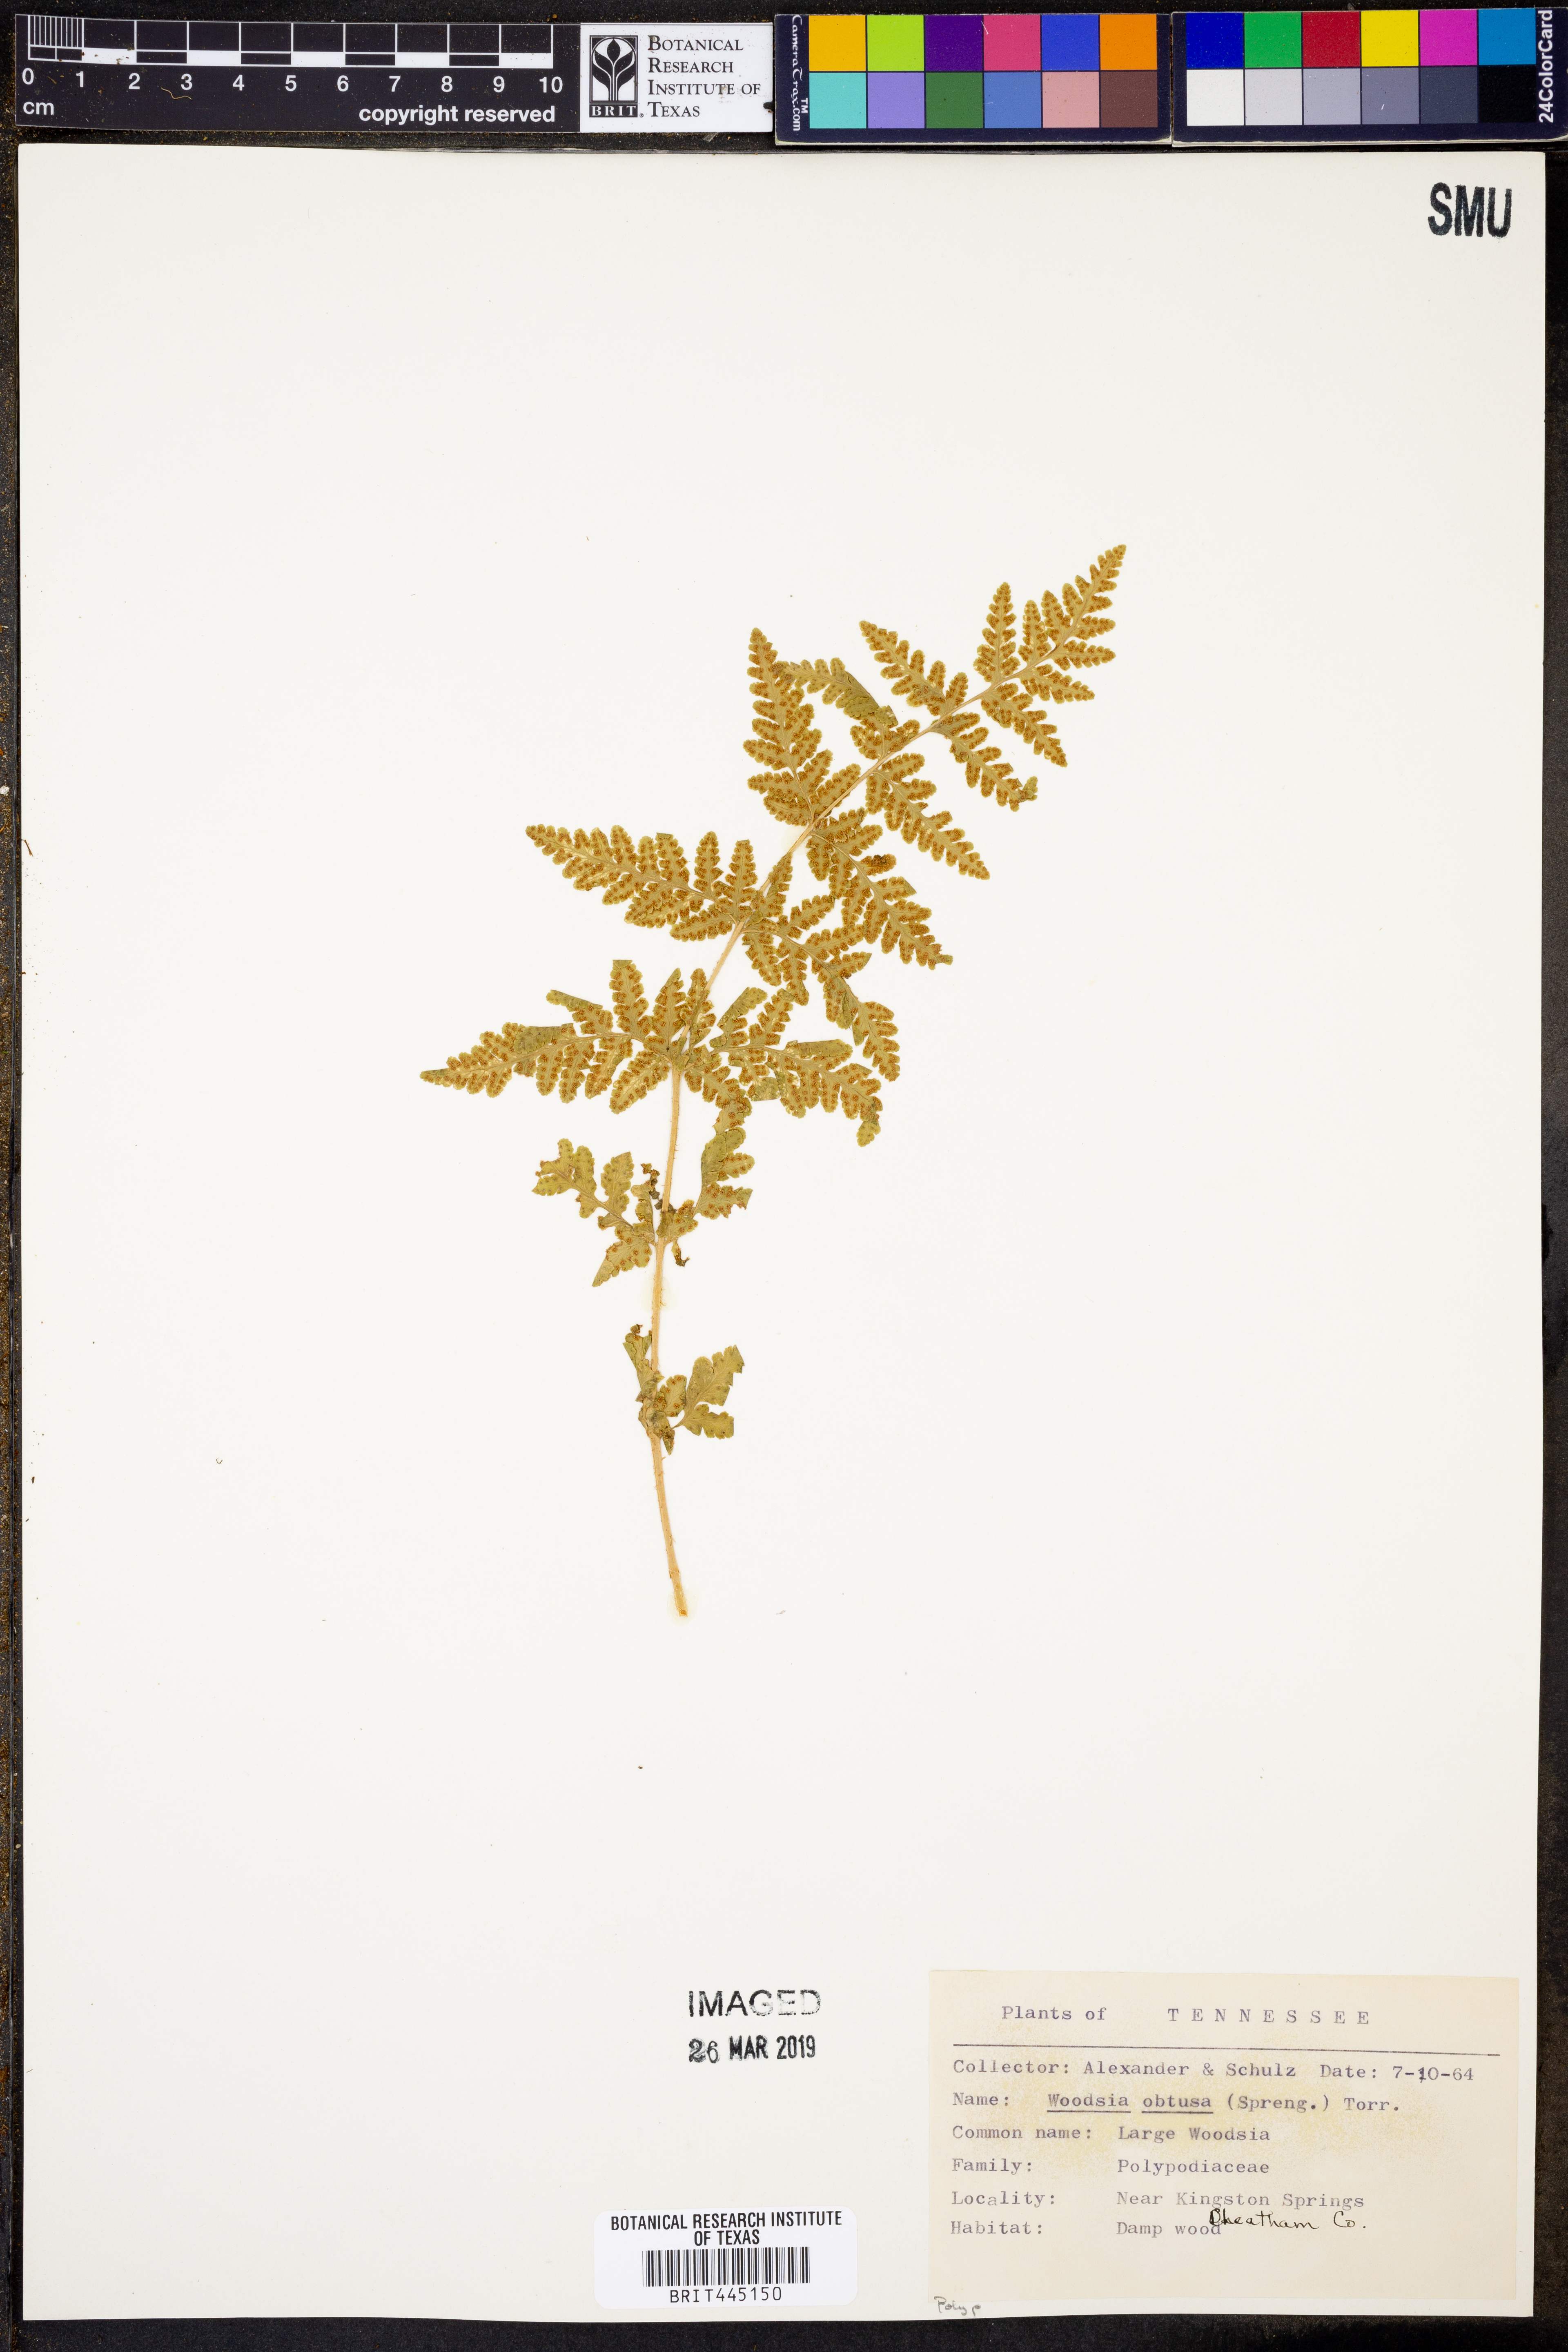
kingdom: Plantae
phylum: Tracheophyta
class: Polypodiopsida
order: Polypodiales
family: Woodsiaceae
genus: Physematium
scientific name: Physematium obtusum
